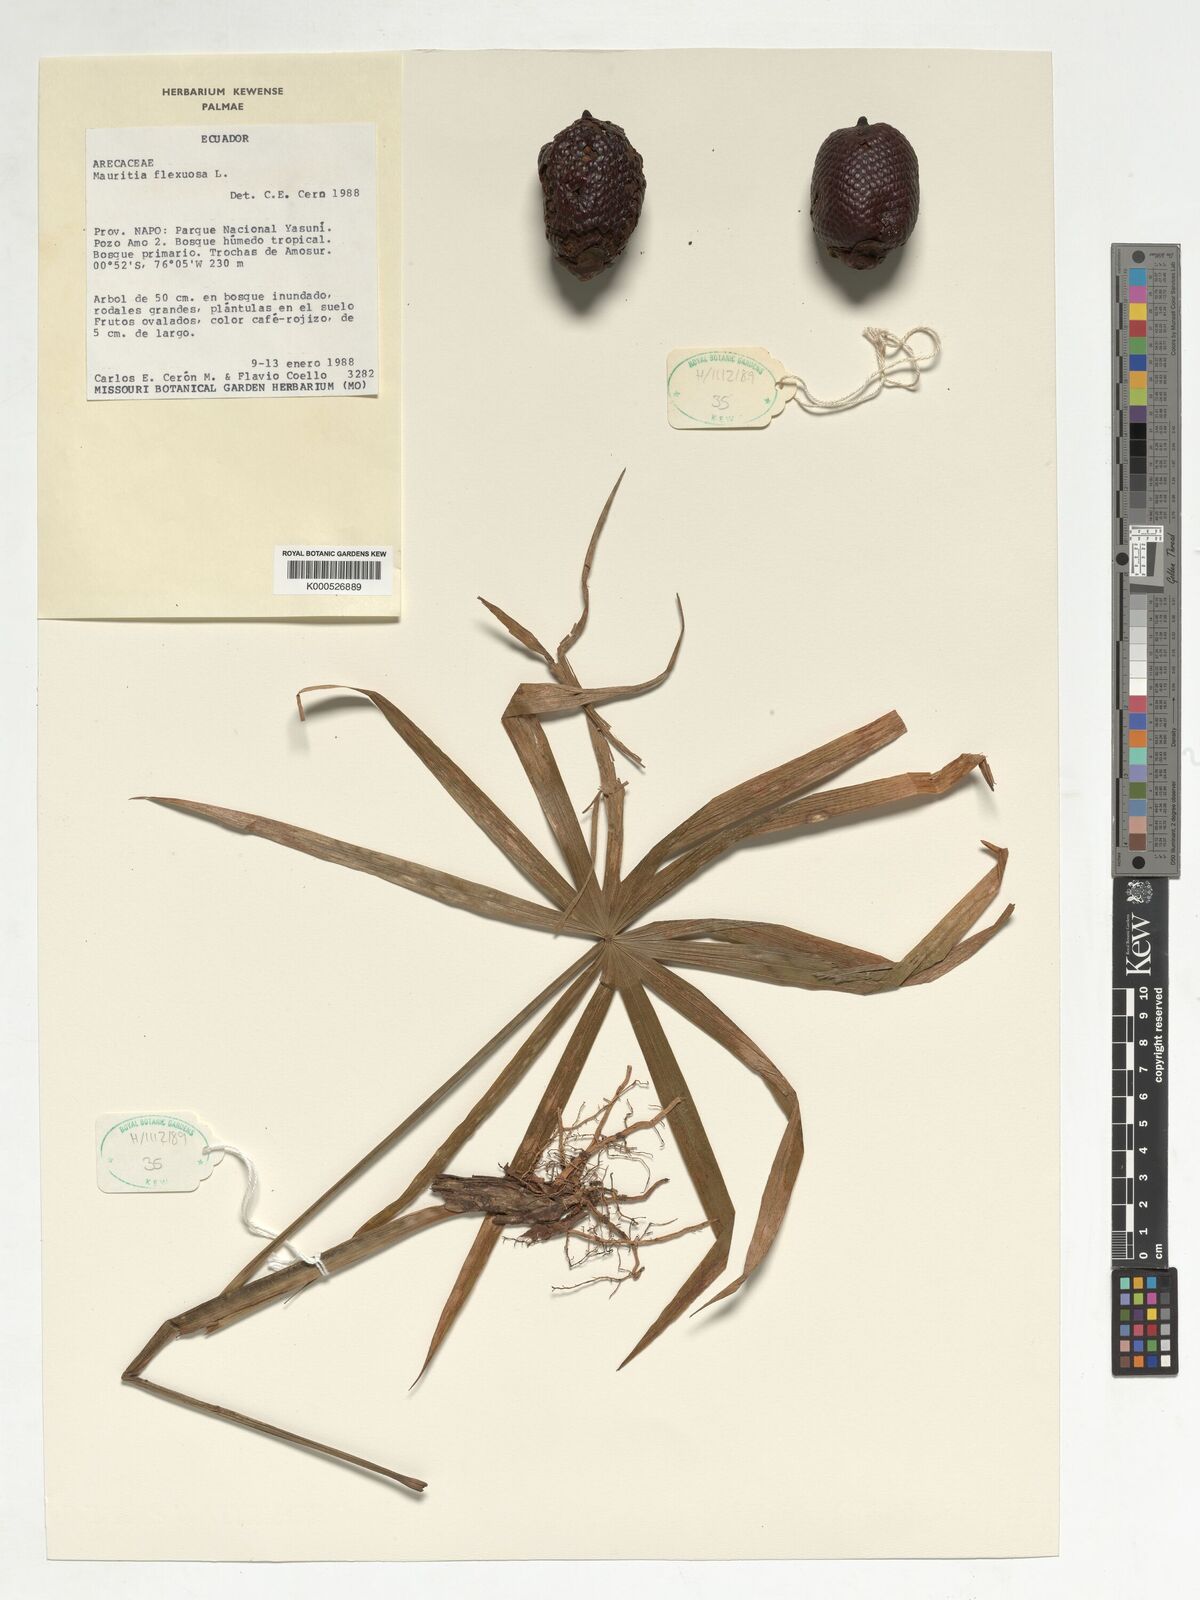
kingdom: Plantae
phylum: Tracheophyta
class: Liliopsida
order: Arecales
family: Arecaceae
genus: Mauritia
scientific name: Mauritia flexuosa
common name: Tree-of-life
